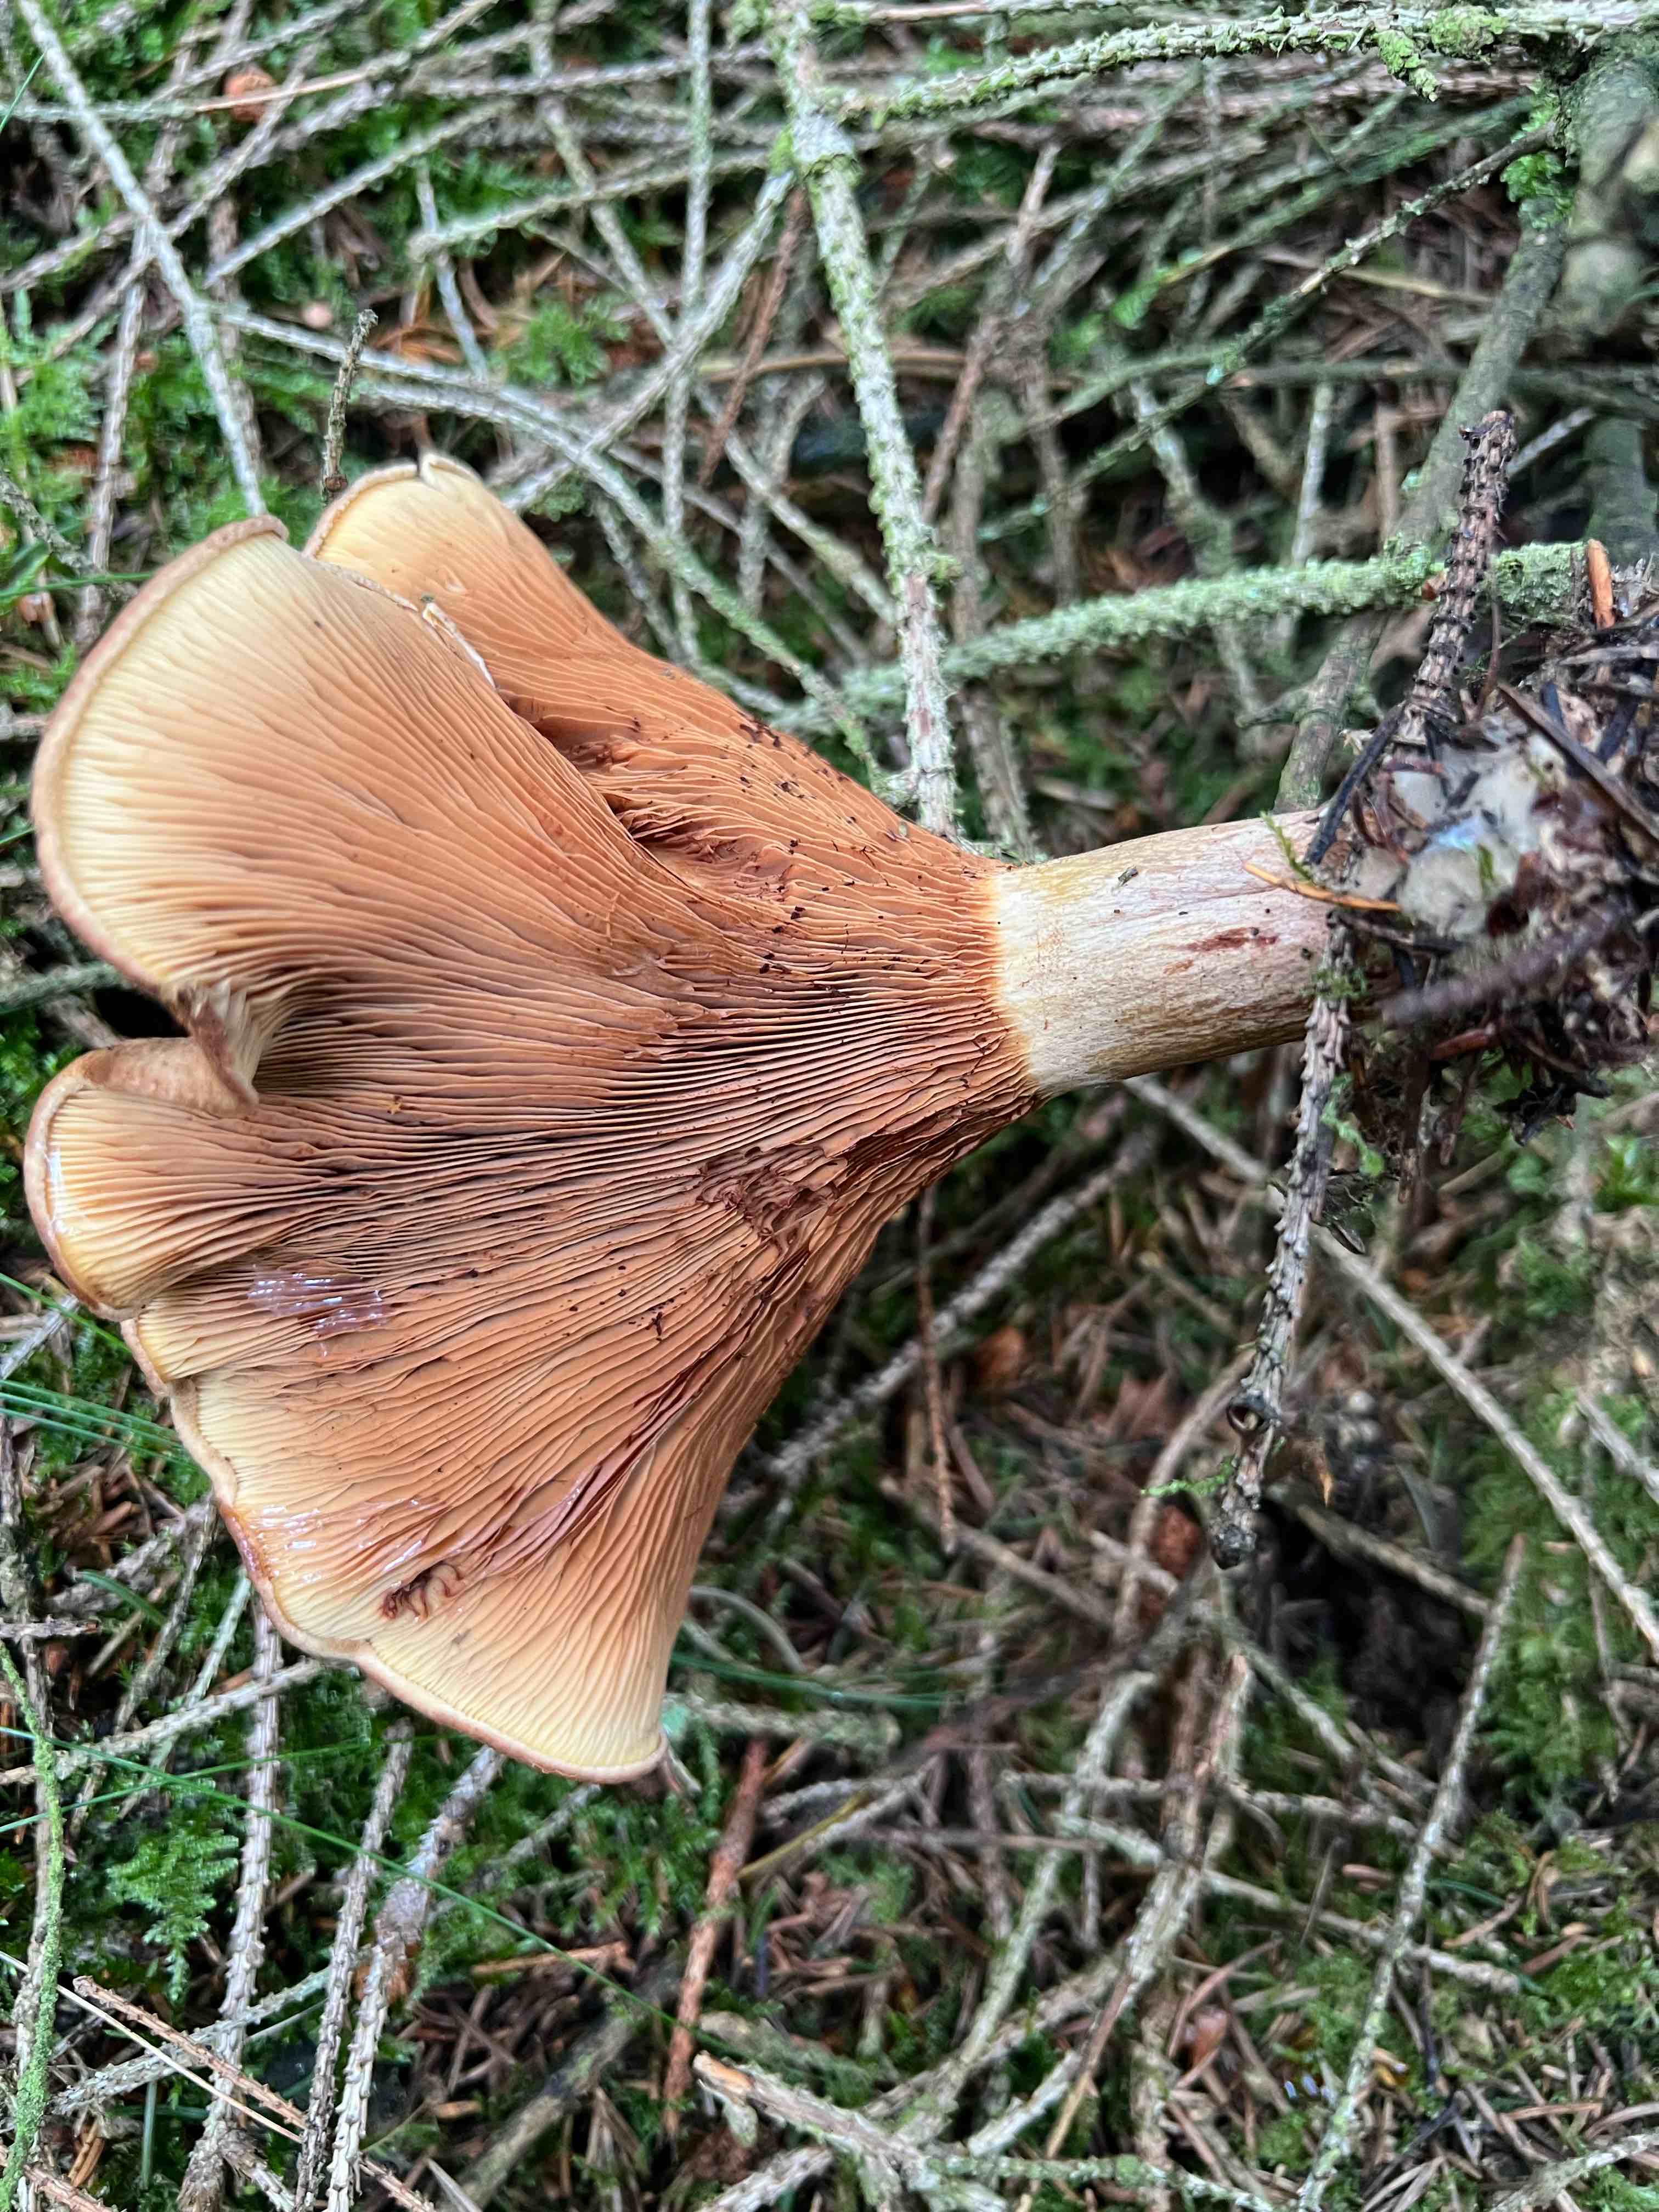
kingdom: Fungi
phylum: Basidiomycota
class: Agaricomycetes
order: Boletales
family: Paxillaceae
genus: Paxillus
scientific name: Paxillus involutus
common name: almindelig netbladhat
